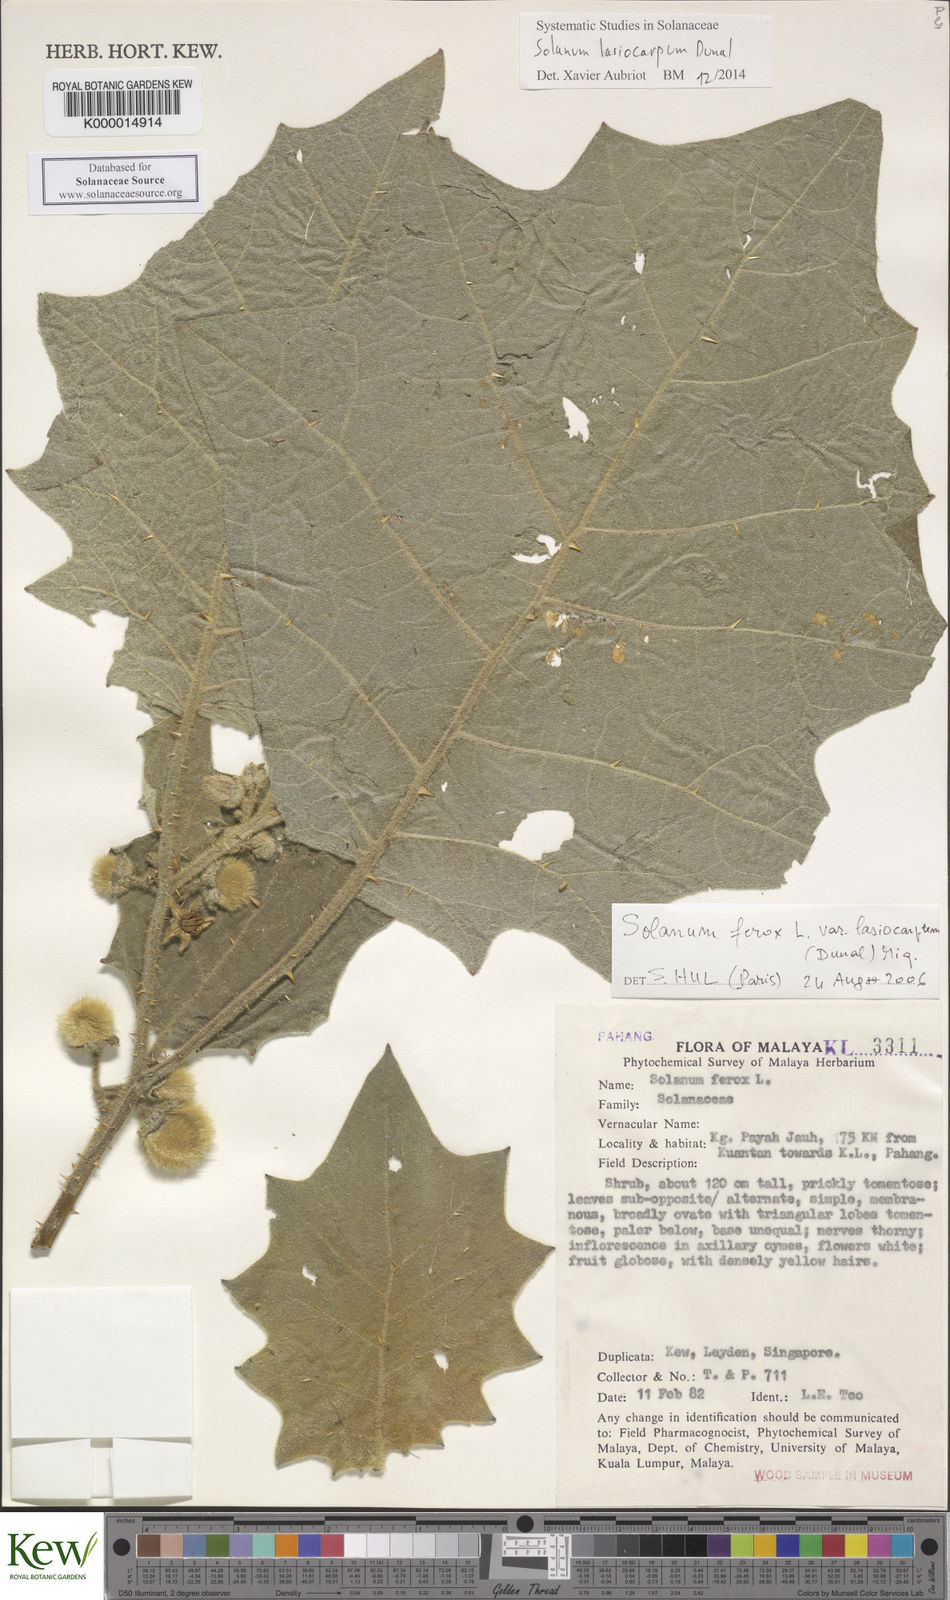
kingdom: Plantae
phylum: Tracheophyta
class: Magnoliopsida
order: Solanales
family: Solanaceae
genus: Solanum
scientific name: Solanum lasiocarpum
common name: Indian nightshade
